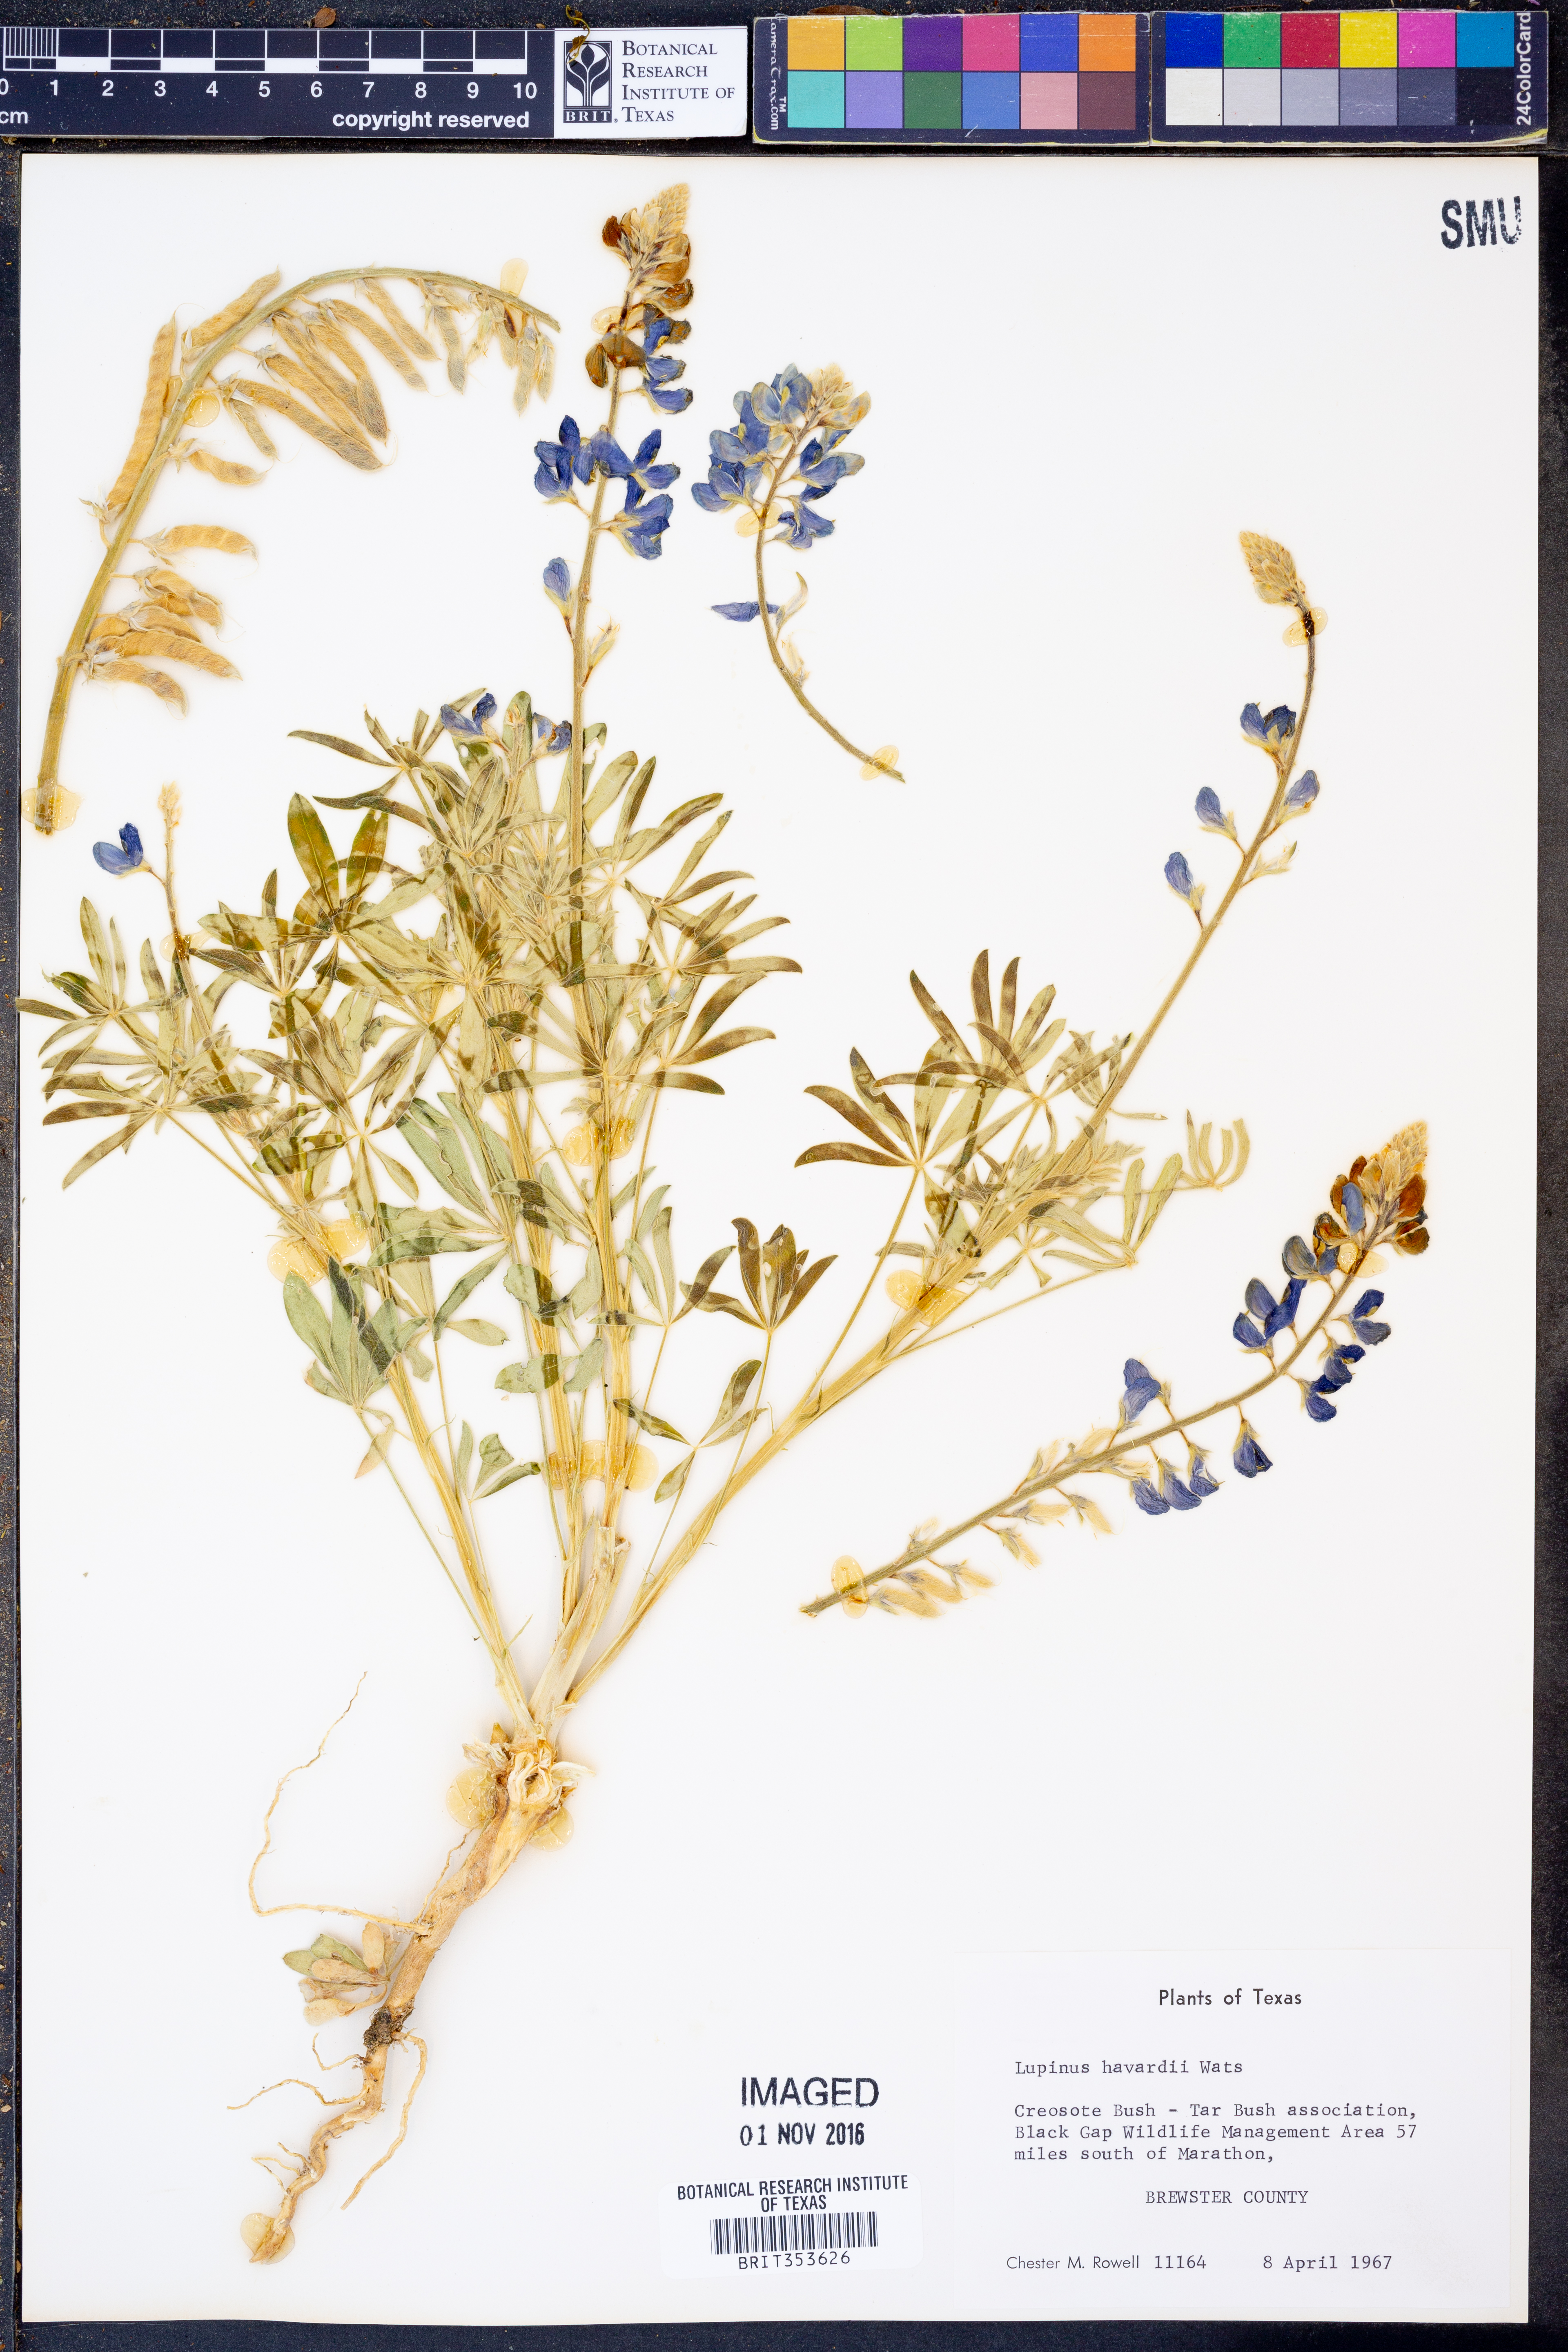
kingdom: Plantae
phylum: Tracheophyta
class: Magnoliopsida
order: Fabales
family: Fabaceae
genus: Lupinus
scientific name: Lupinus havardii
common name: Chisos bluebonnet
